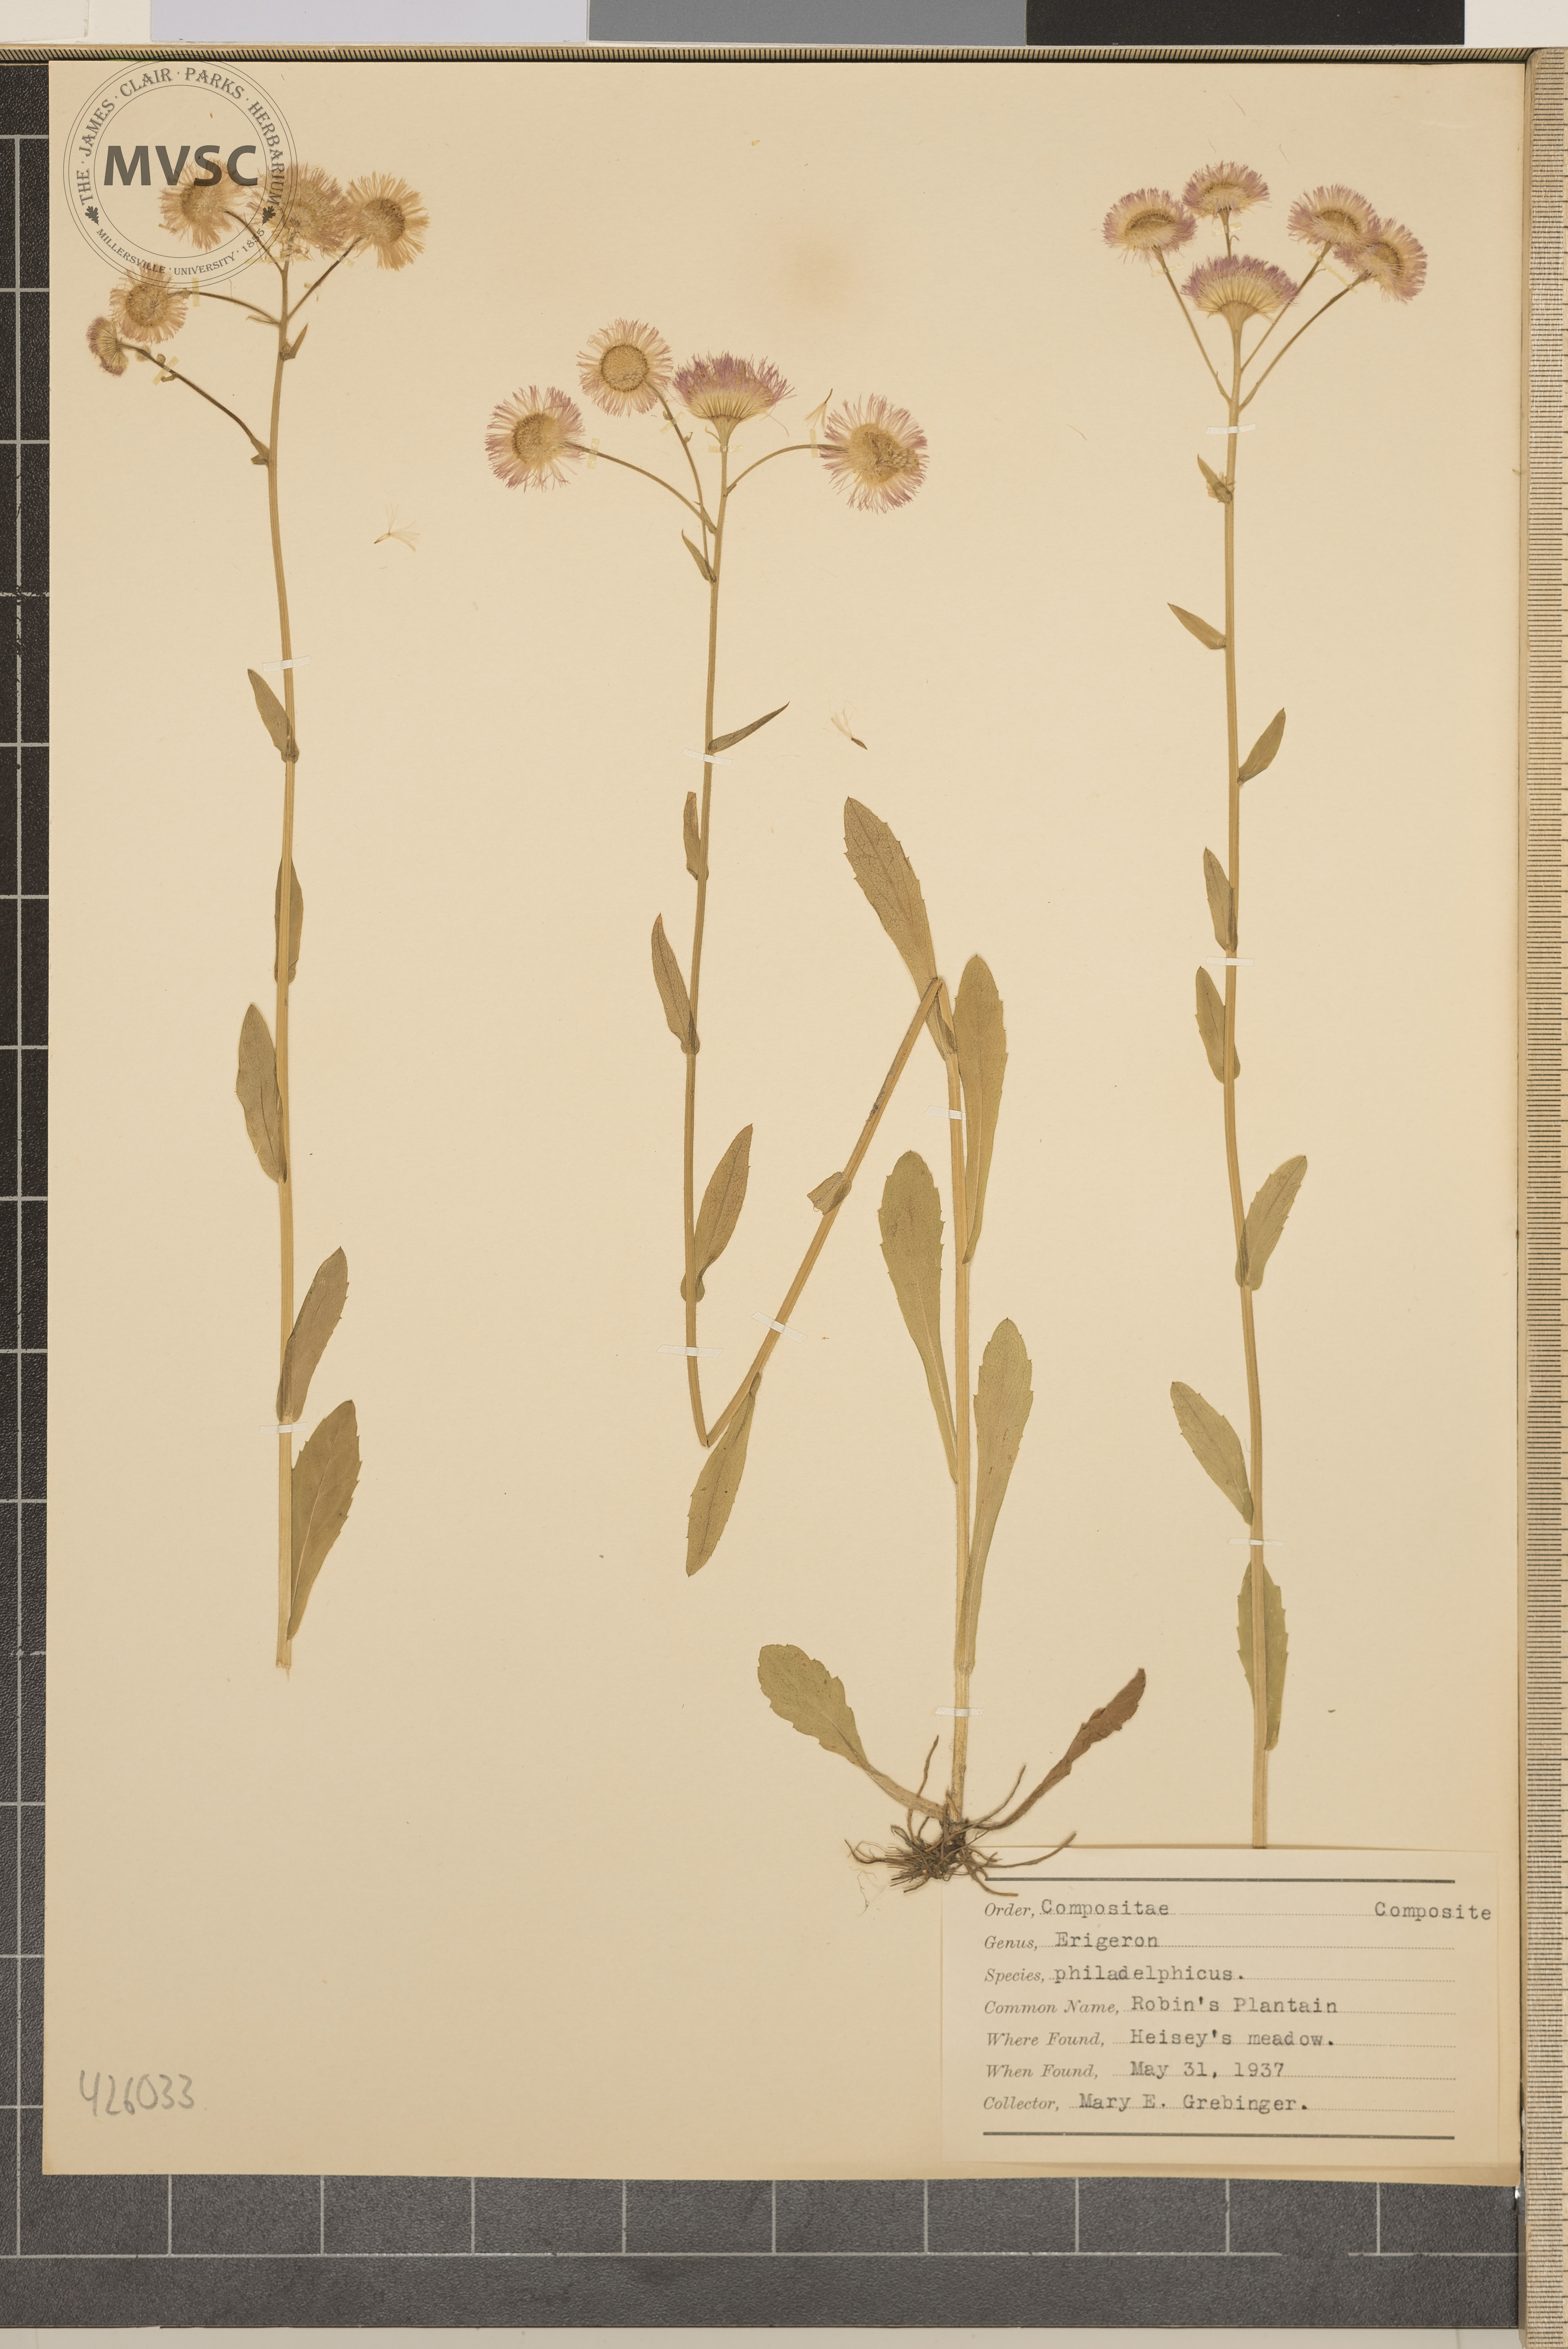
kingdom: Plantae
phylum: Tracheophyta
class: Magnoliopsida
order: Asterales
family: Asteraceae
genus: Erigeron
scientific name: Erigeron philadelphicus
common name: Robin's Plantain
